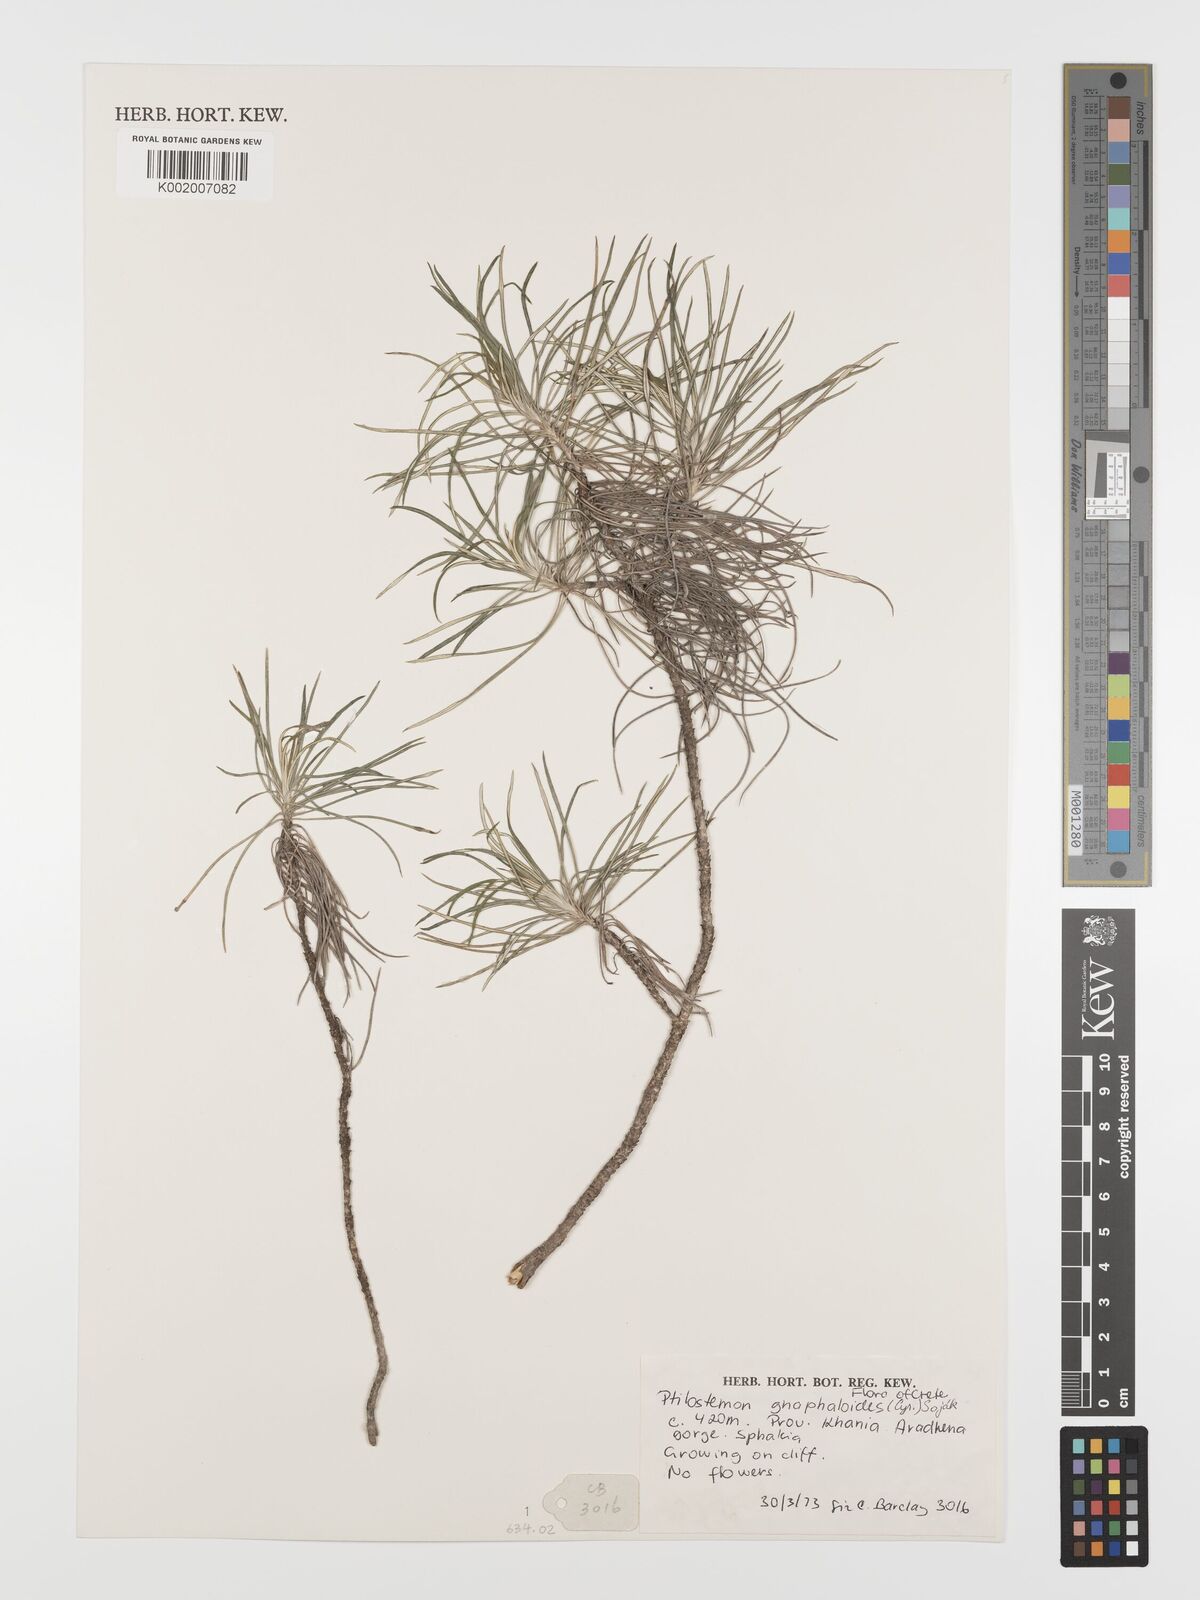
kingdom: Plantae
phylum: Tracheophyta
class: Magnoliopsida
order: Asterales
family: Asteraceae
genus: Ptilostemon
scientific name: Ptilostemon gnaphaloides
